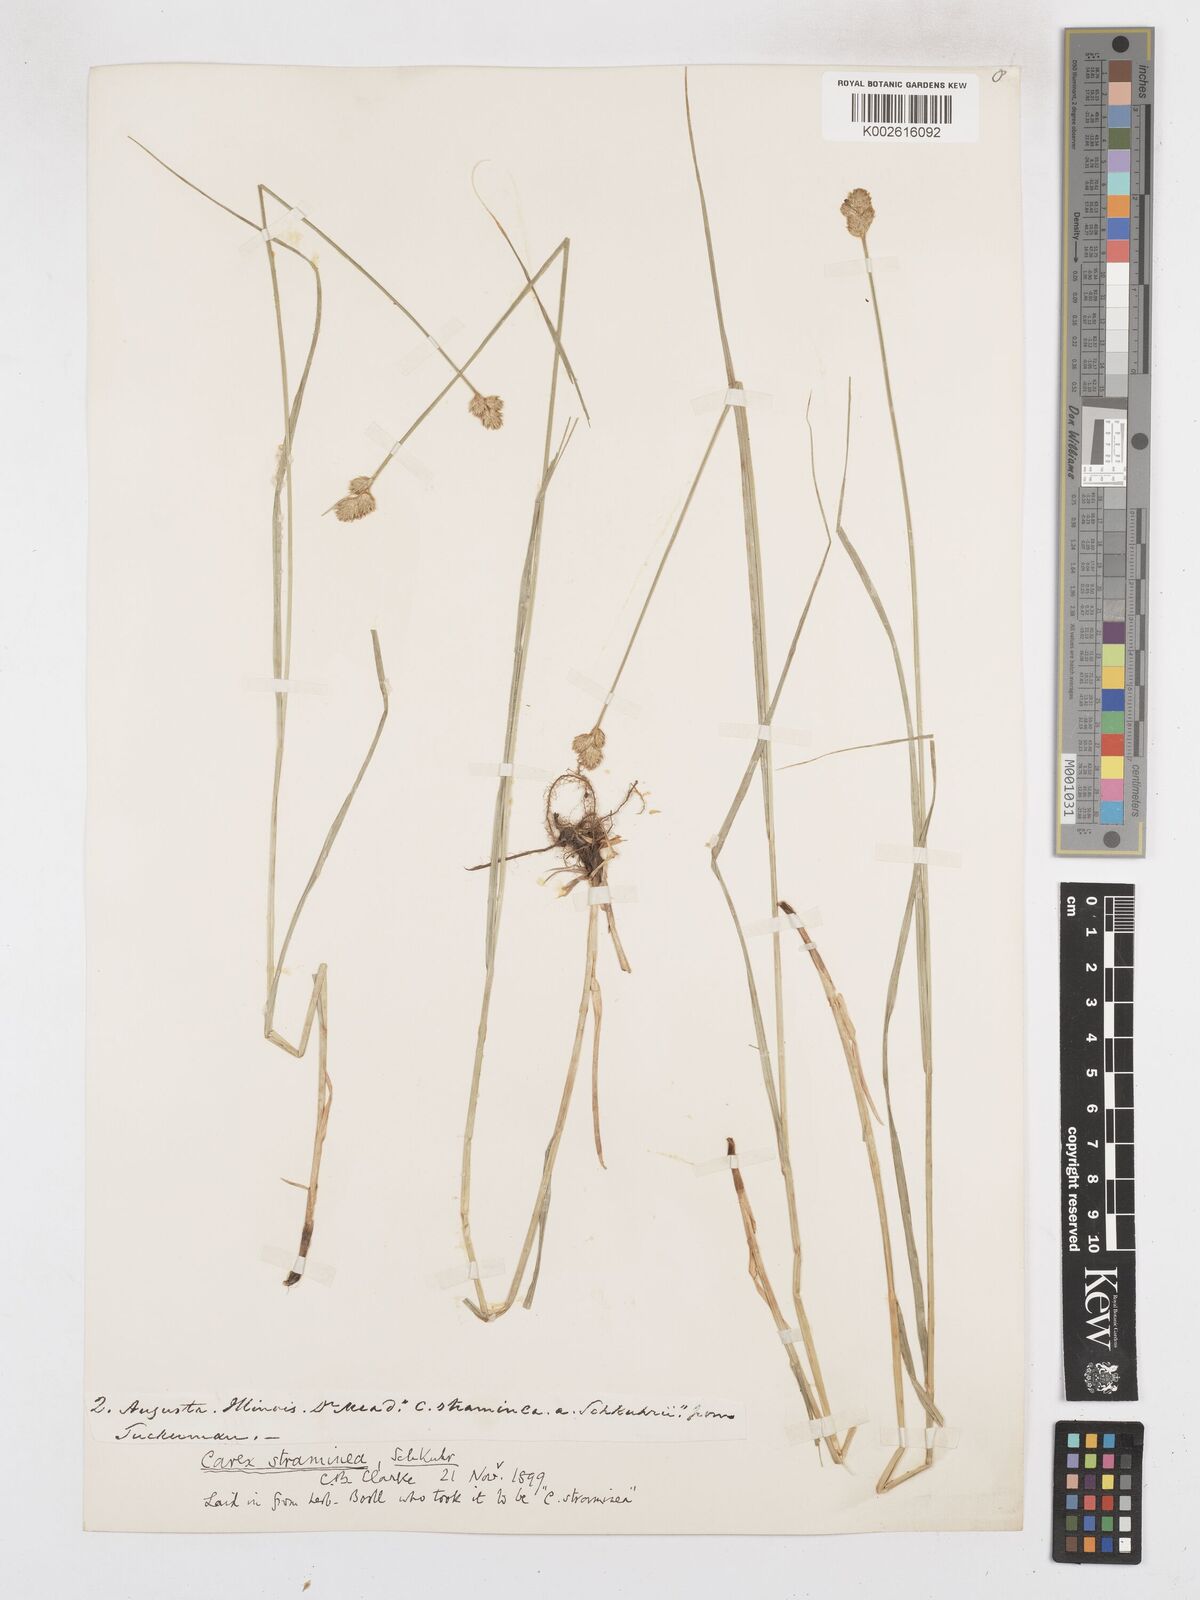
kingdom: Plantae
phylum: Tracheophyta
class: Liliopsida
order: Poales
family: Cyperaceae
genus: Carex
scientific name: Carex brevior
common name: Brevior sedge
